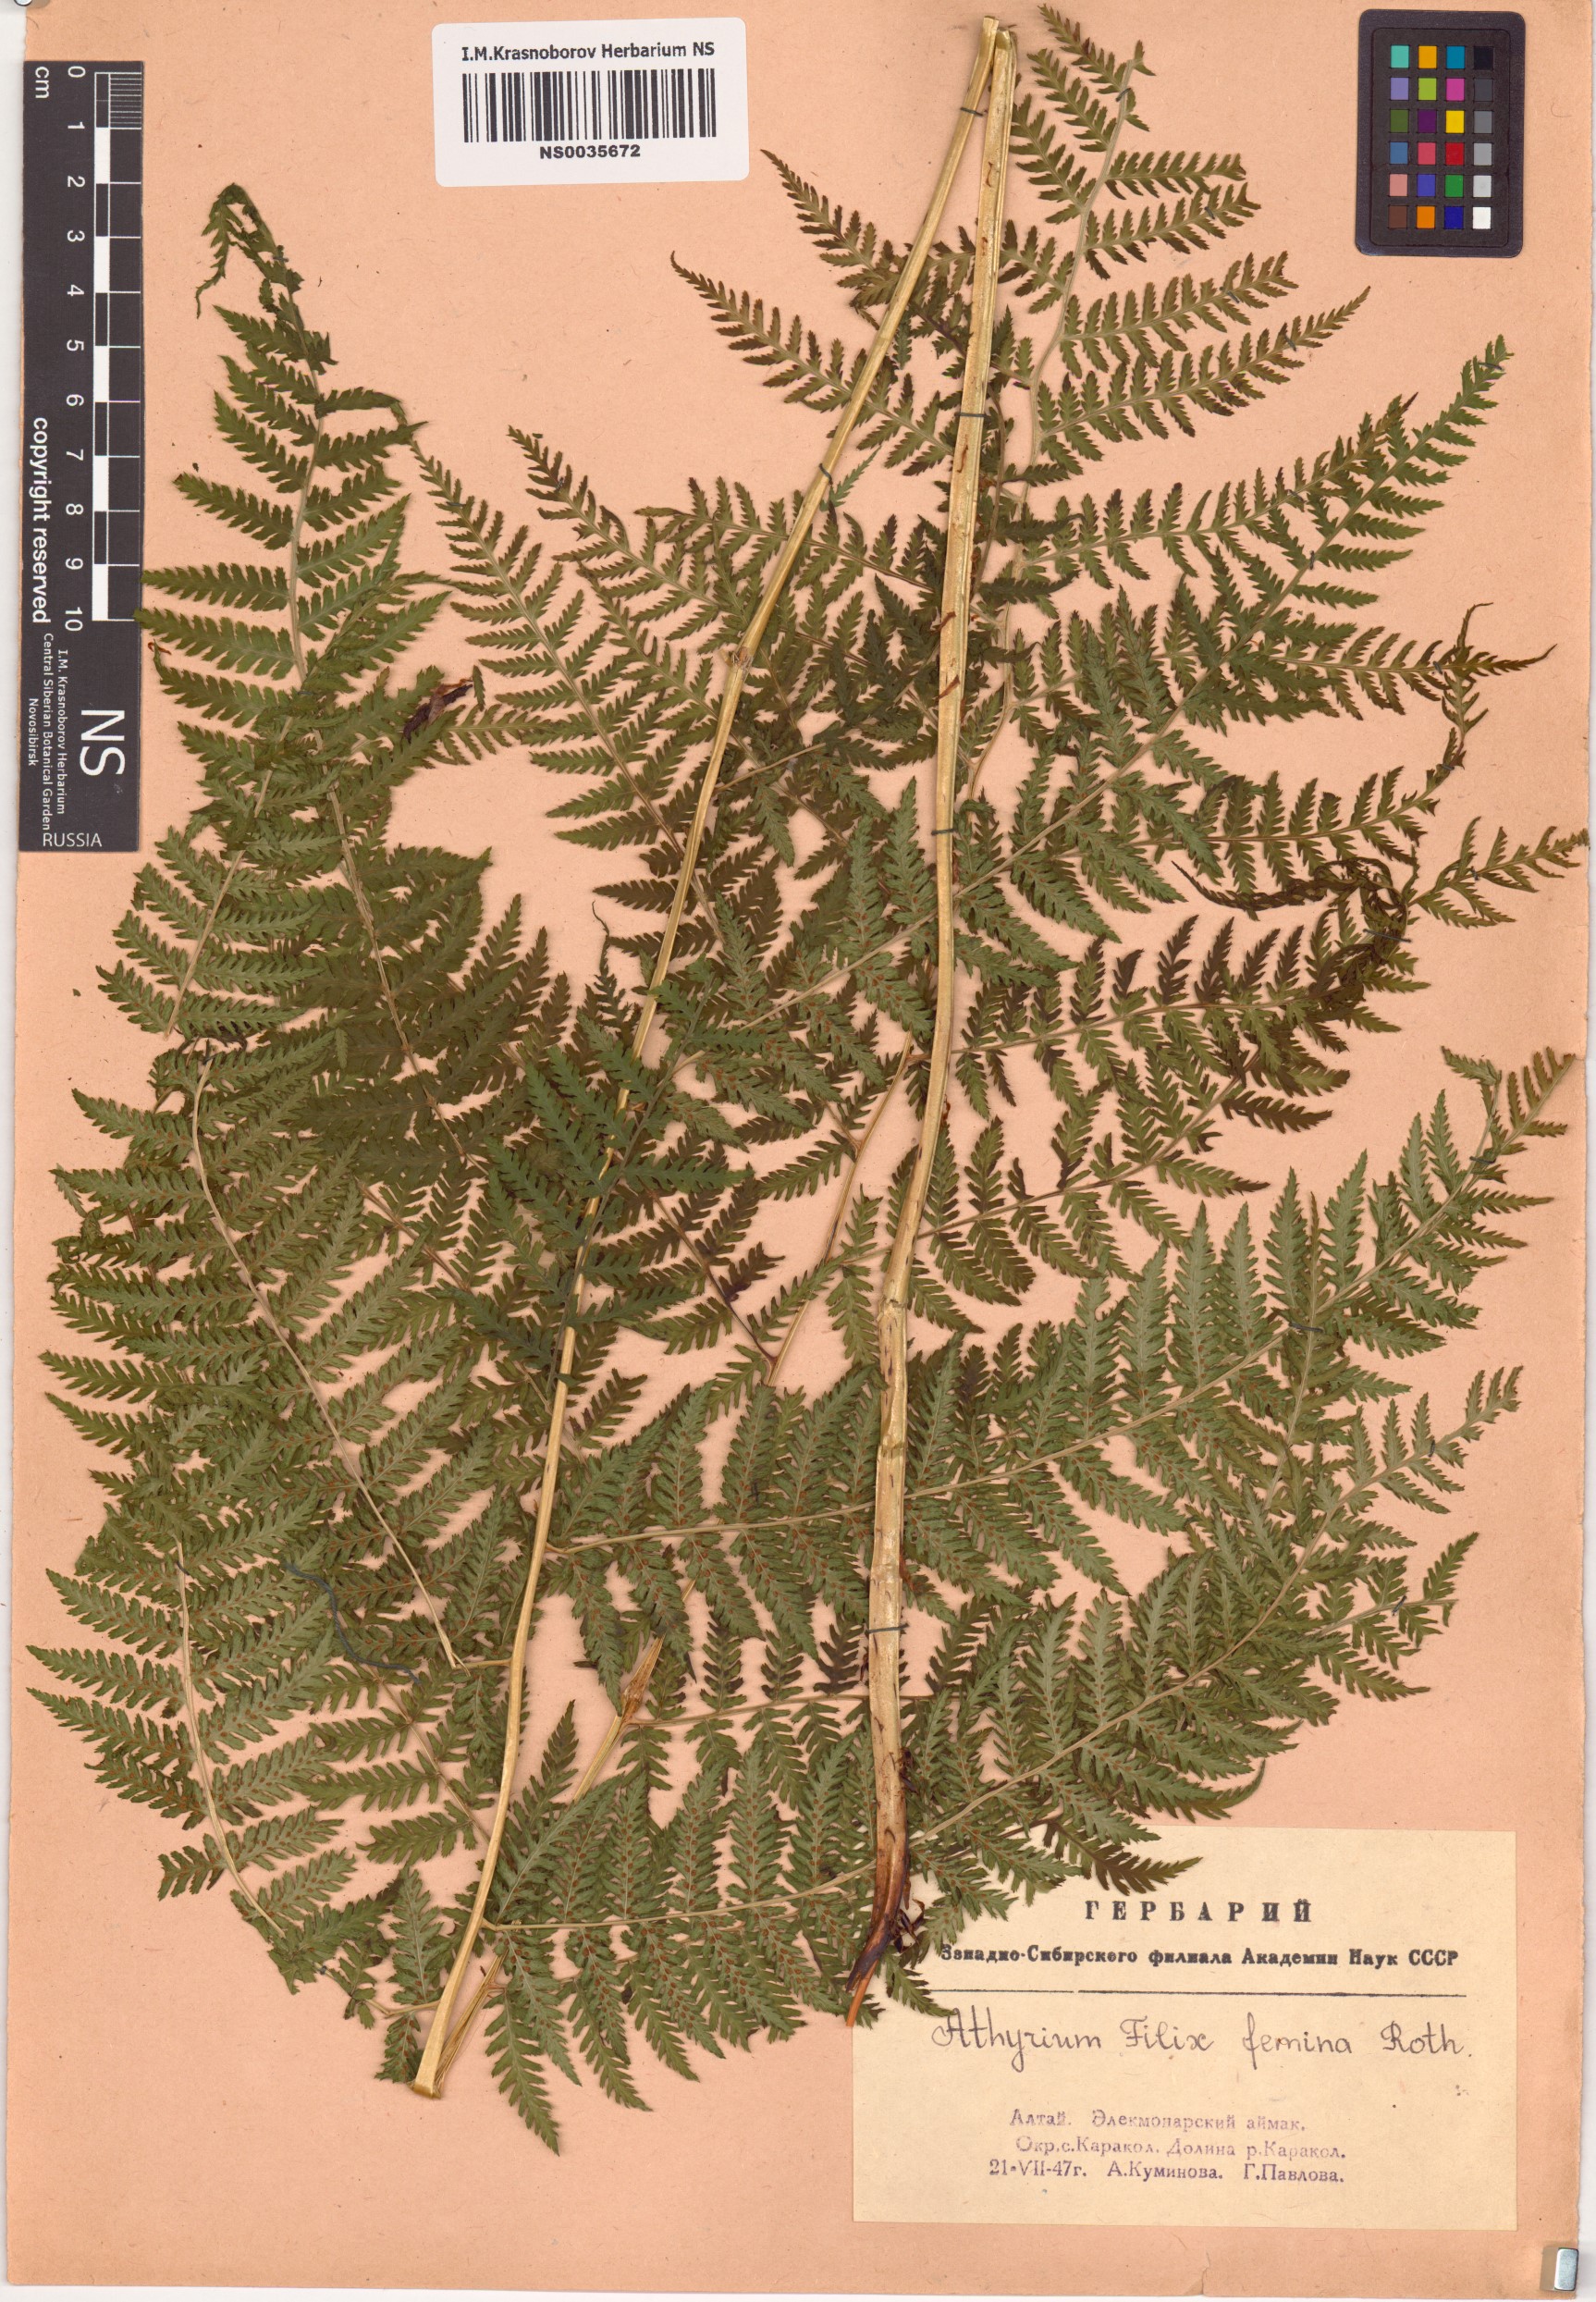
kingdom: Plantae
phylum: Tracheophyta
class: Polypodiopsida
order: Polypodiales
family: Athyriaceae
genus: Athyrium
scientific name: Athyrium filix-femina
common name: Lady fern
